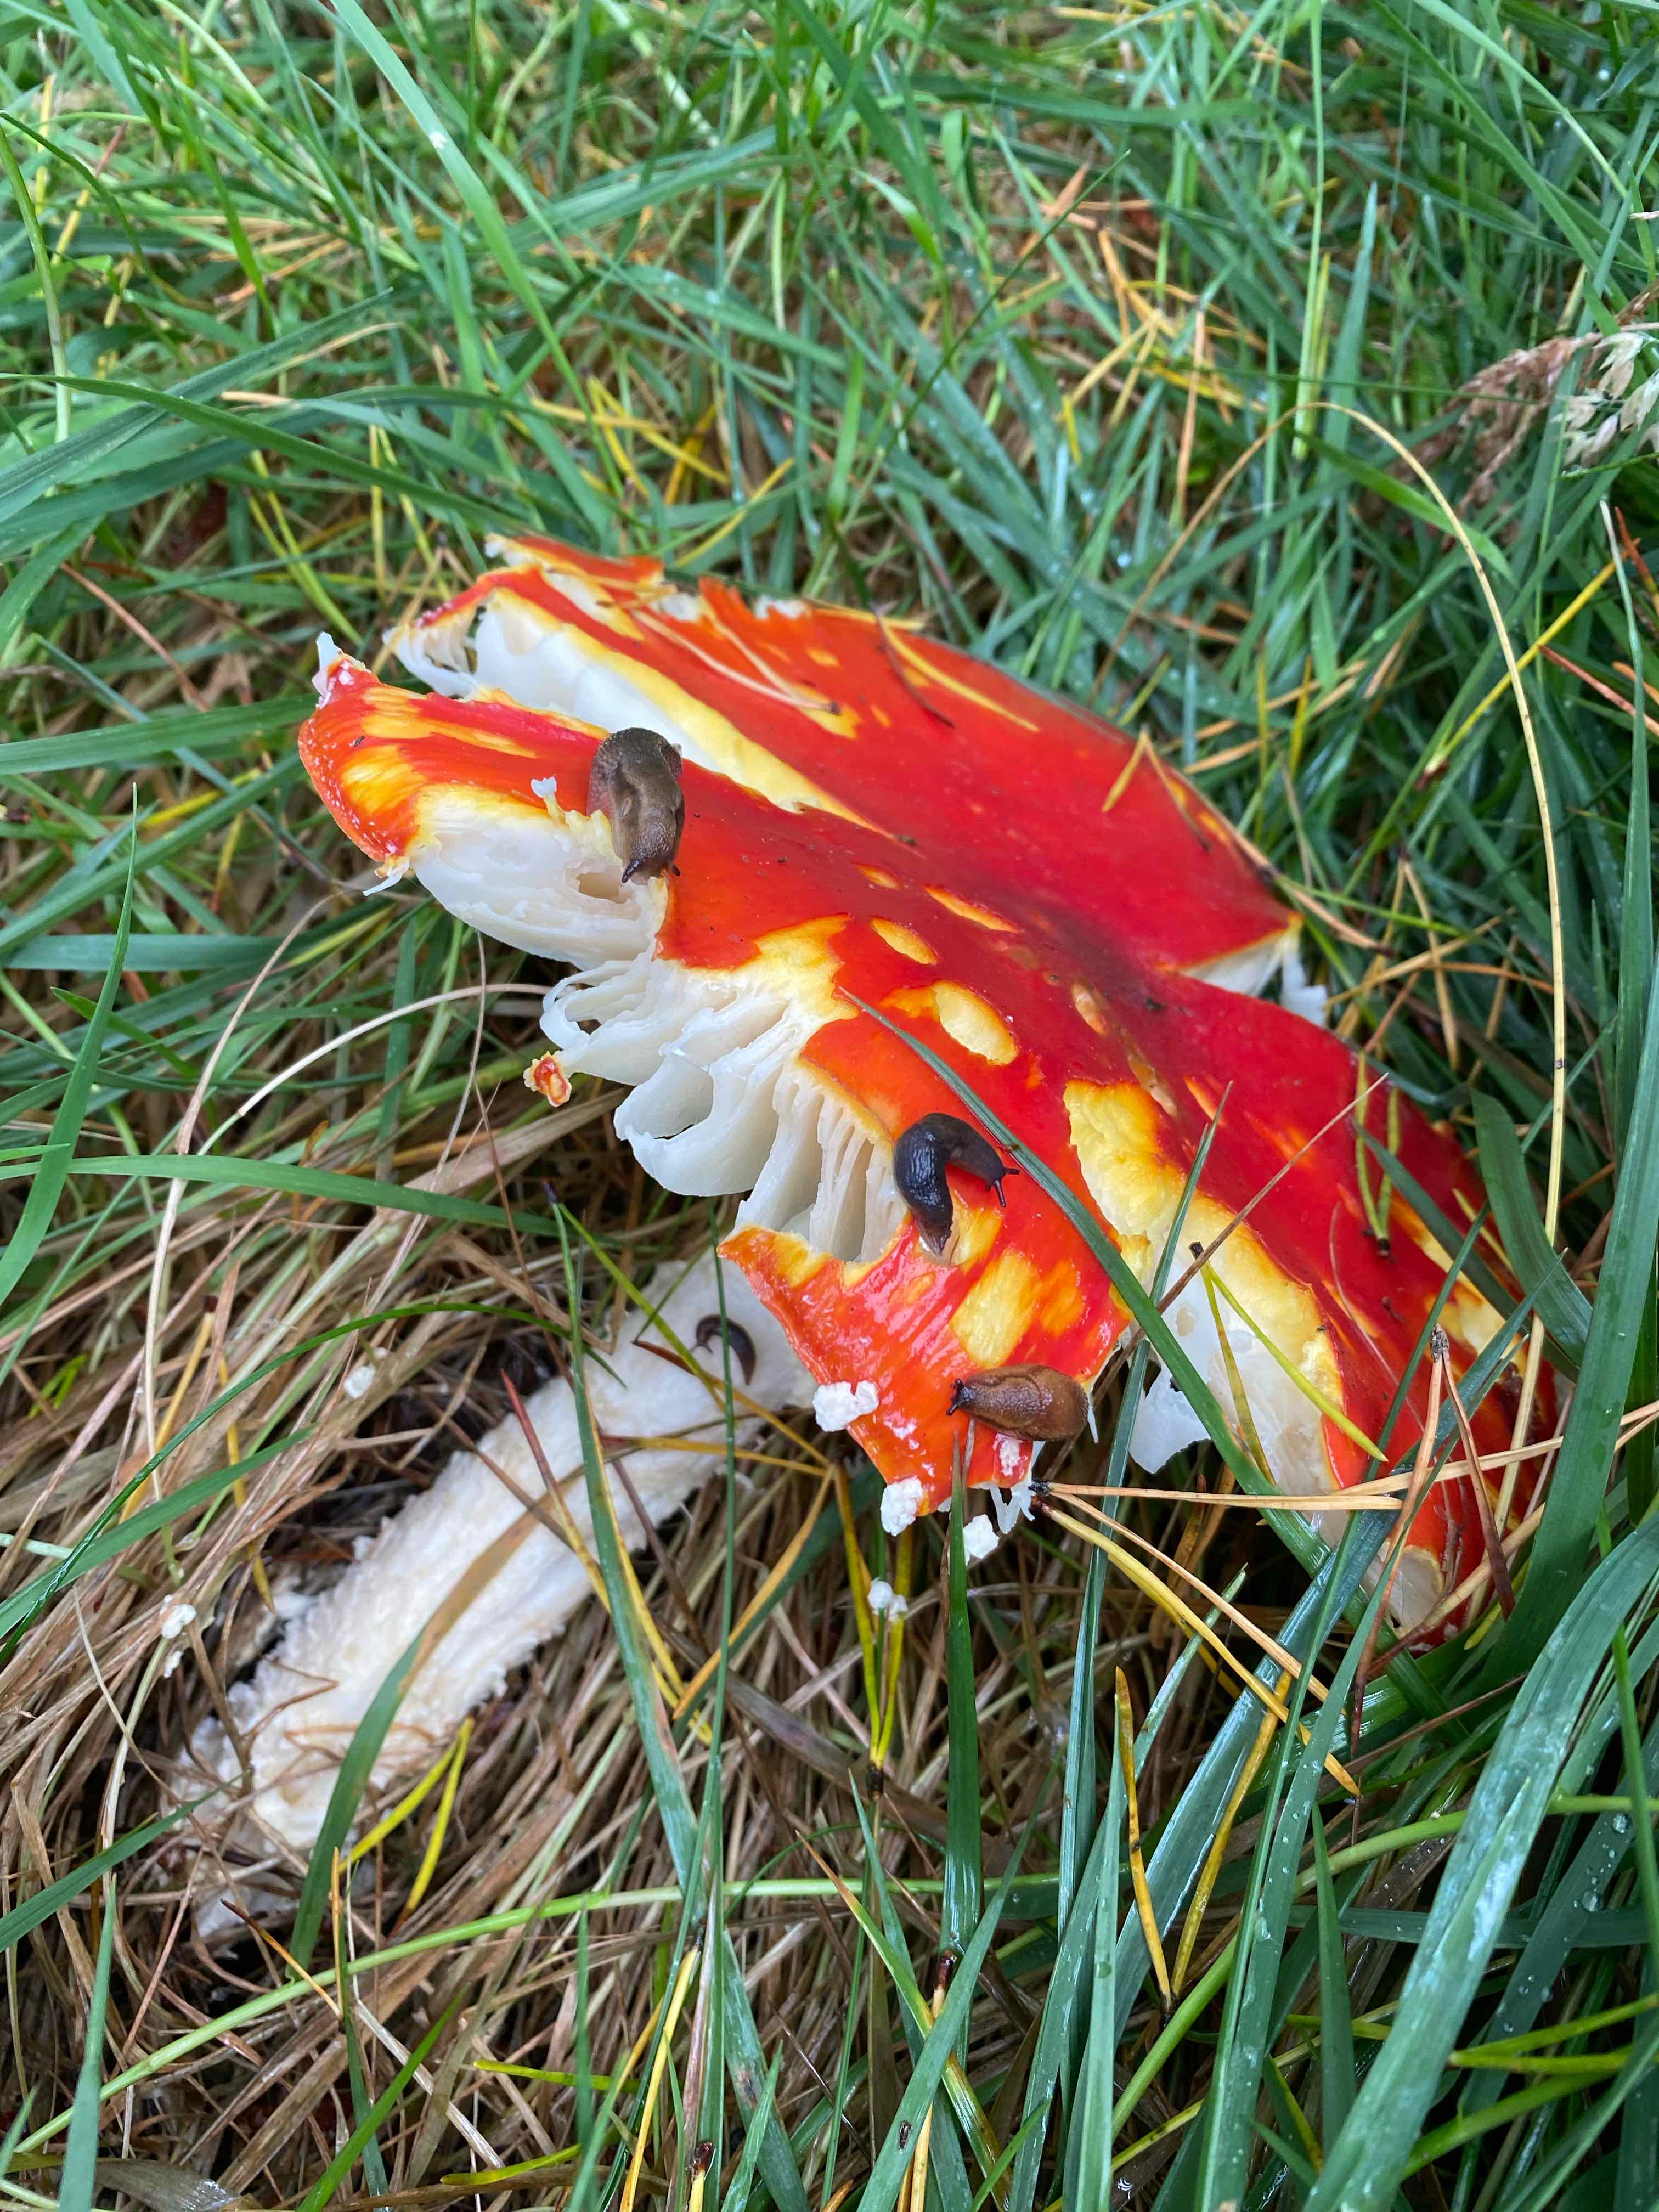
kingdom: Fungi
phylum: Basidiomycota
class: Agaricomycetes
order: Agaricales
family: Amanitaceae
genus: Amanita
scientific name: Amanita muscaria
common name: rød fluesvamp
